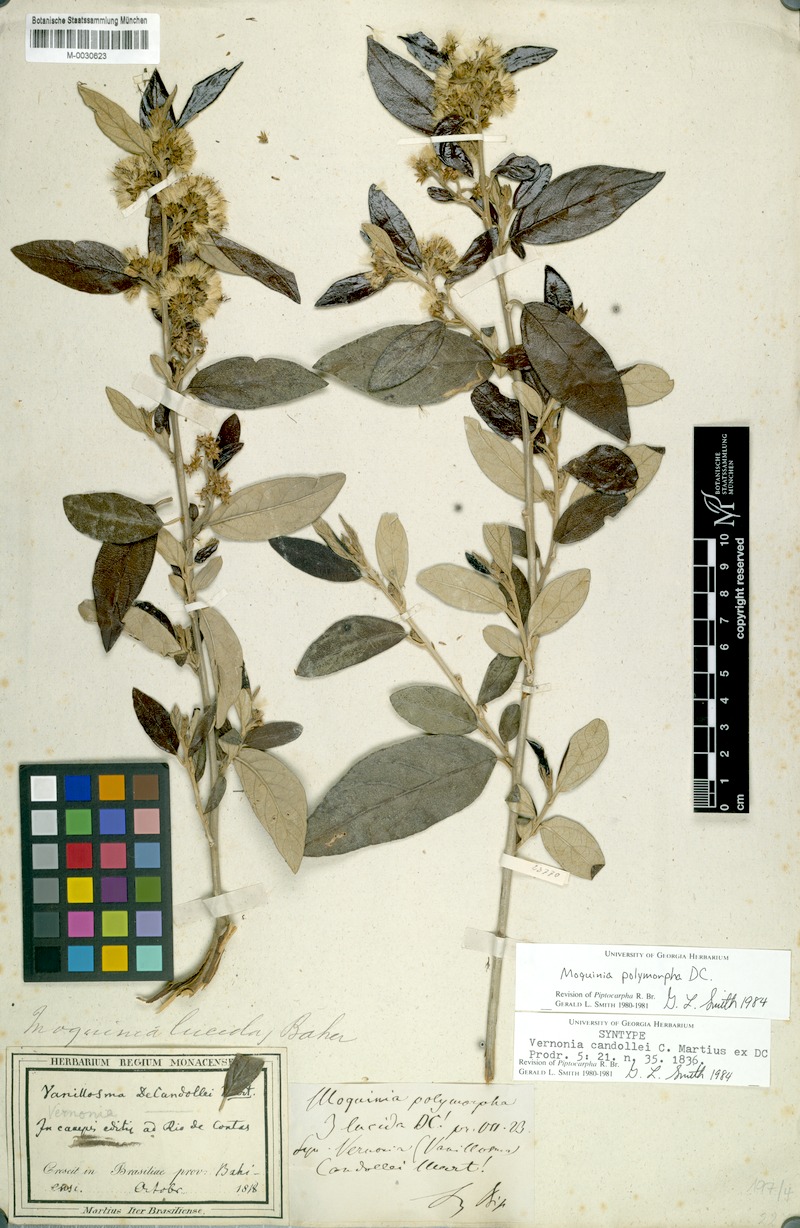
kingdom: Plantae
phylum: Tracheophyta
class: Magnoliopsida
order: Asterales
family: Asteraceae
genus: Moquiniastrum
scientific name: Moquiniastrum polymorphum
